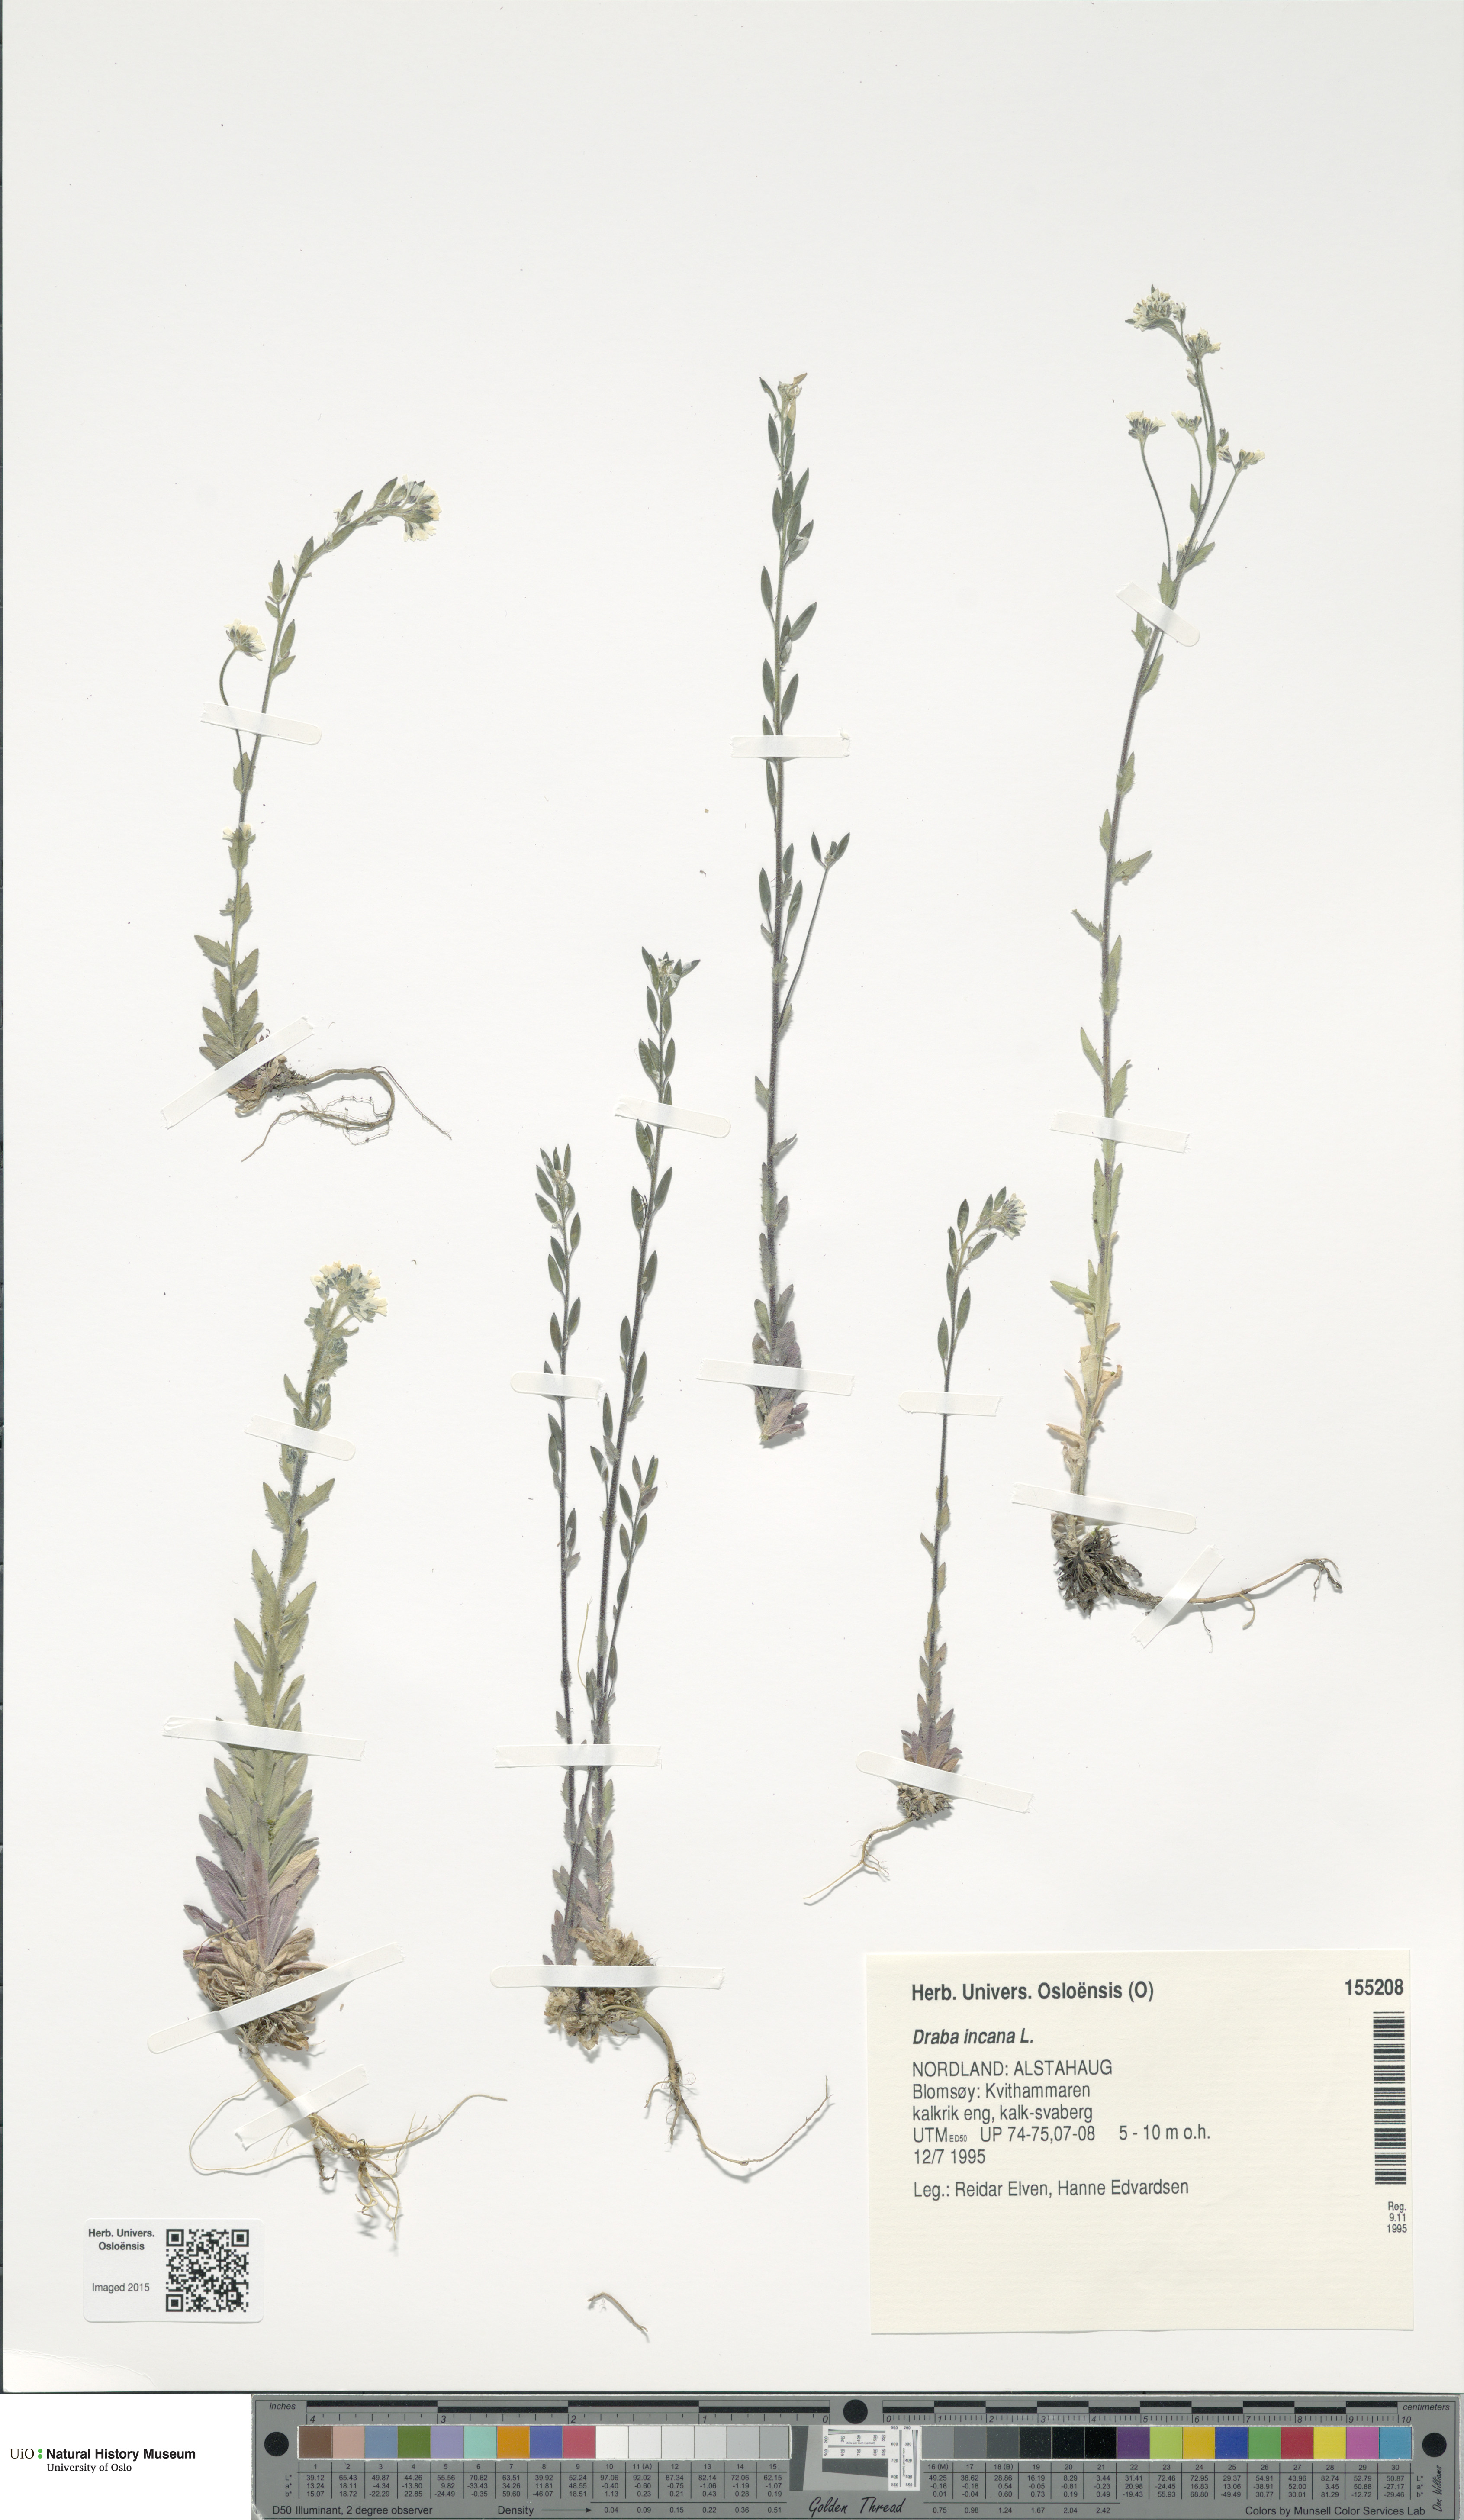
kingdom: Plantae
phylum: Tracheophyta
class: Magnoliopsida
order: Brassicales
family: Brassicaceae
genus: Draba
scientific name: Draba incana
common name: Hoary whitlow-grass
